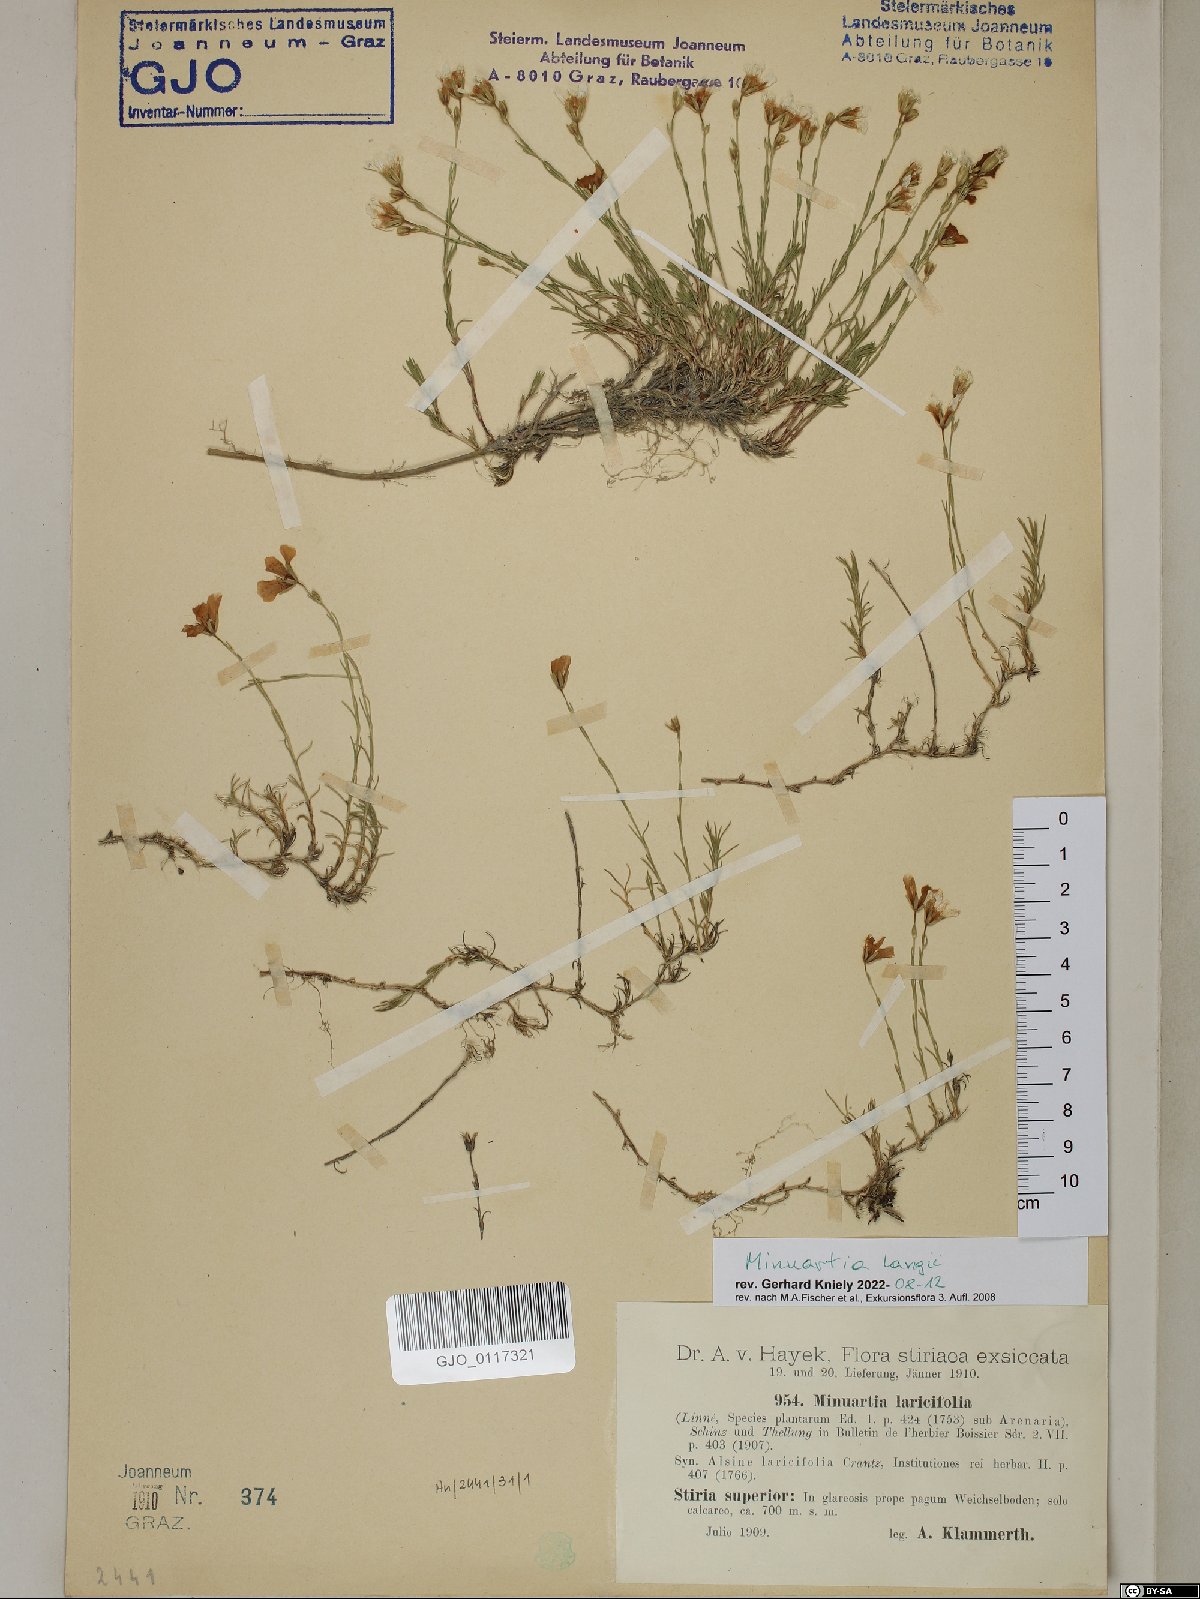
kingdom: Plantae
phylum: Tracheophyta
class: Magnoliopsida
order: Caryophyllales
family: Caryophyllaceae
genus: Cherleria
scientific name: Cherleria langii
